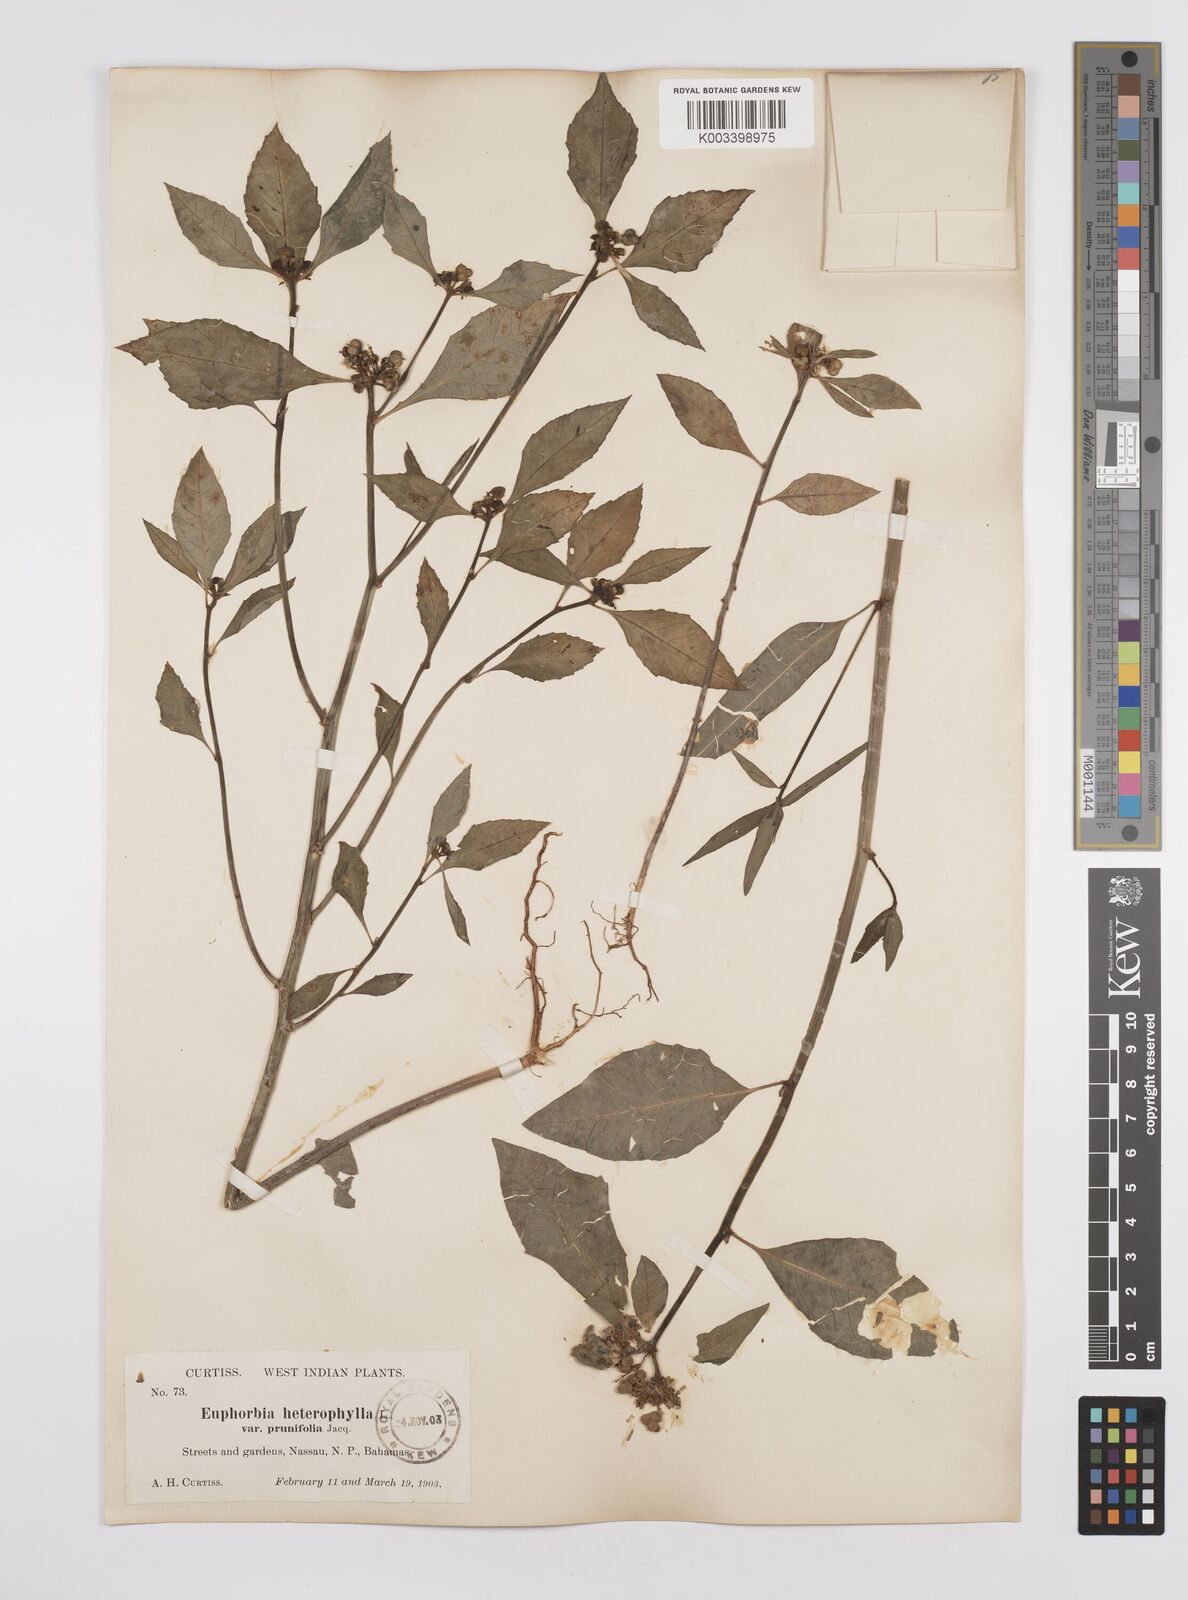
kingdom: Plantae
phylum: Tracheophyta
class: Magnoliopsida
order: Malpighiales
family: Euphorbiaceae
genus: Euphorbia
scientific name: Euphorbia heterophylla
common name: Mexican fireplant
